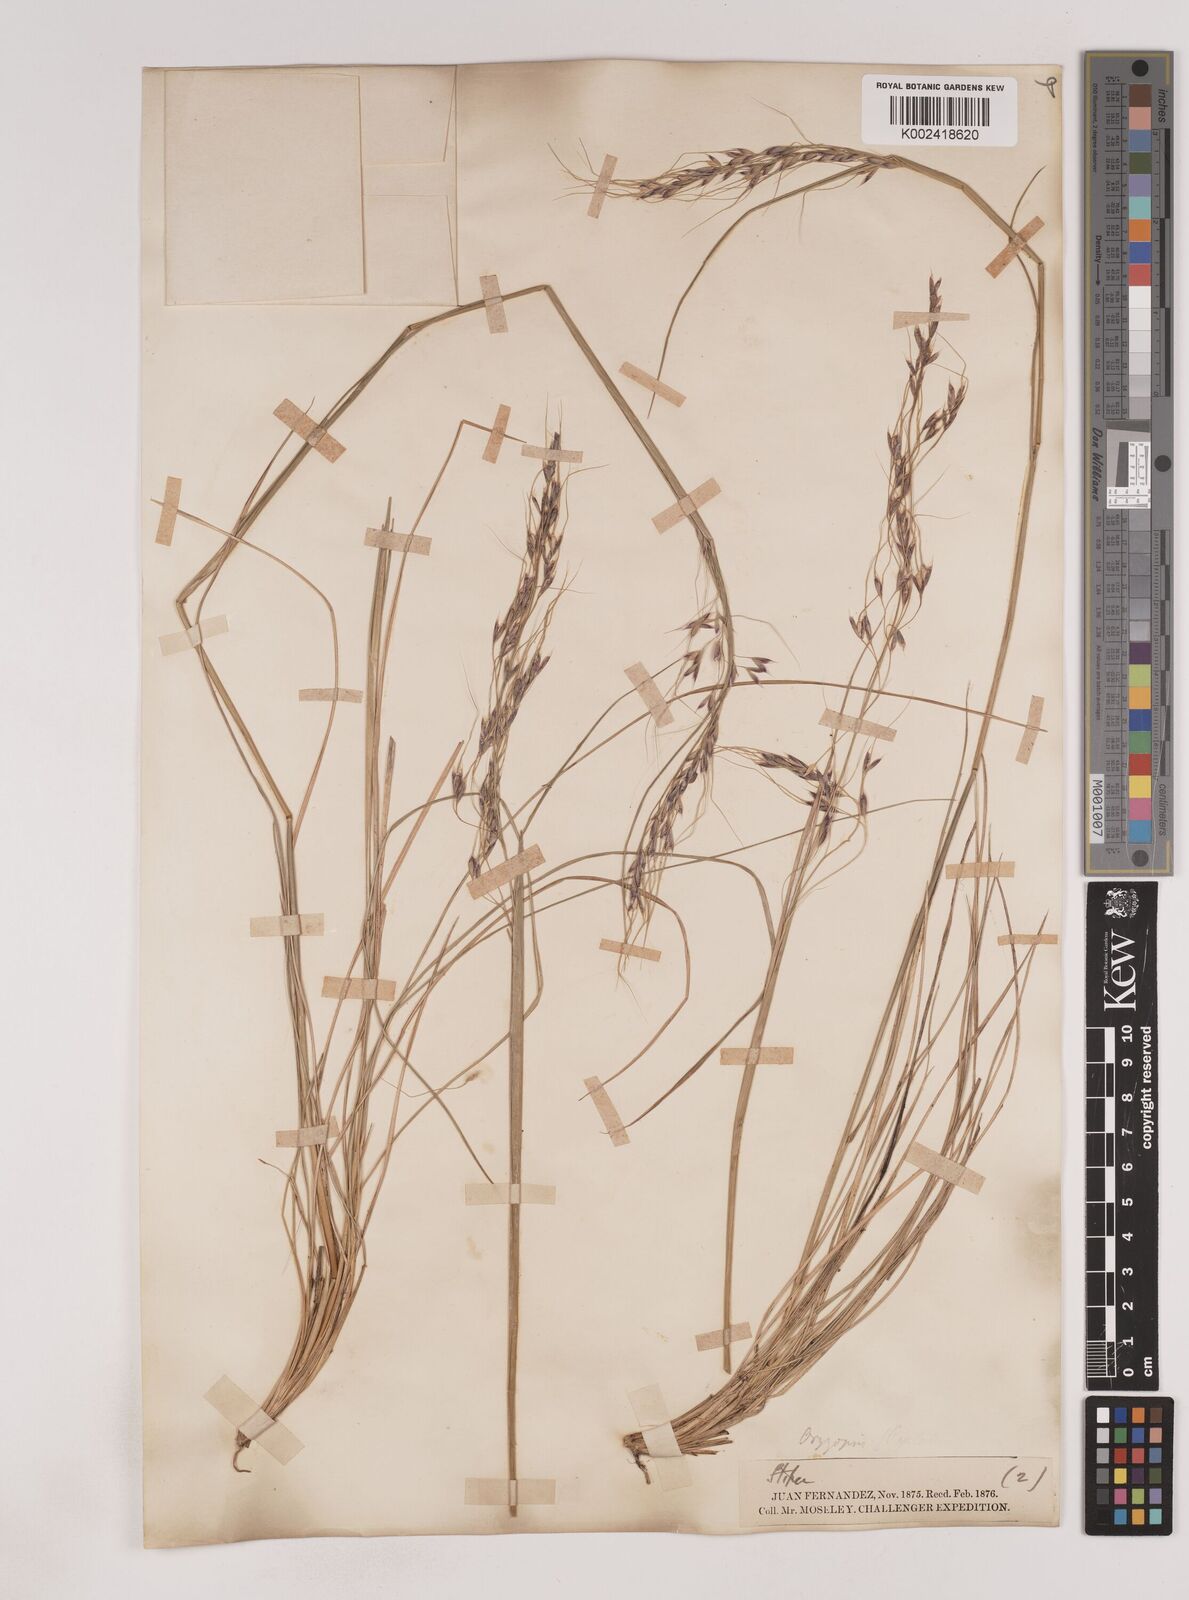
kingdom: Plantae
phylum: Tracheophyta
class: Liliopsida
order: Poales
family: Poaceae
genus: Piptochaetium
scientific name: Piptochaetium
